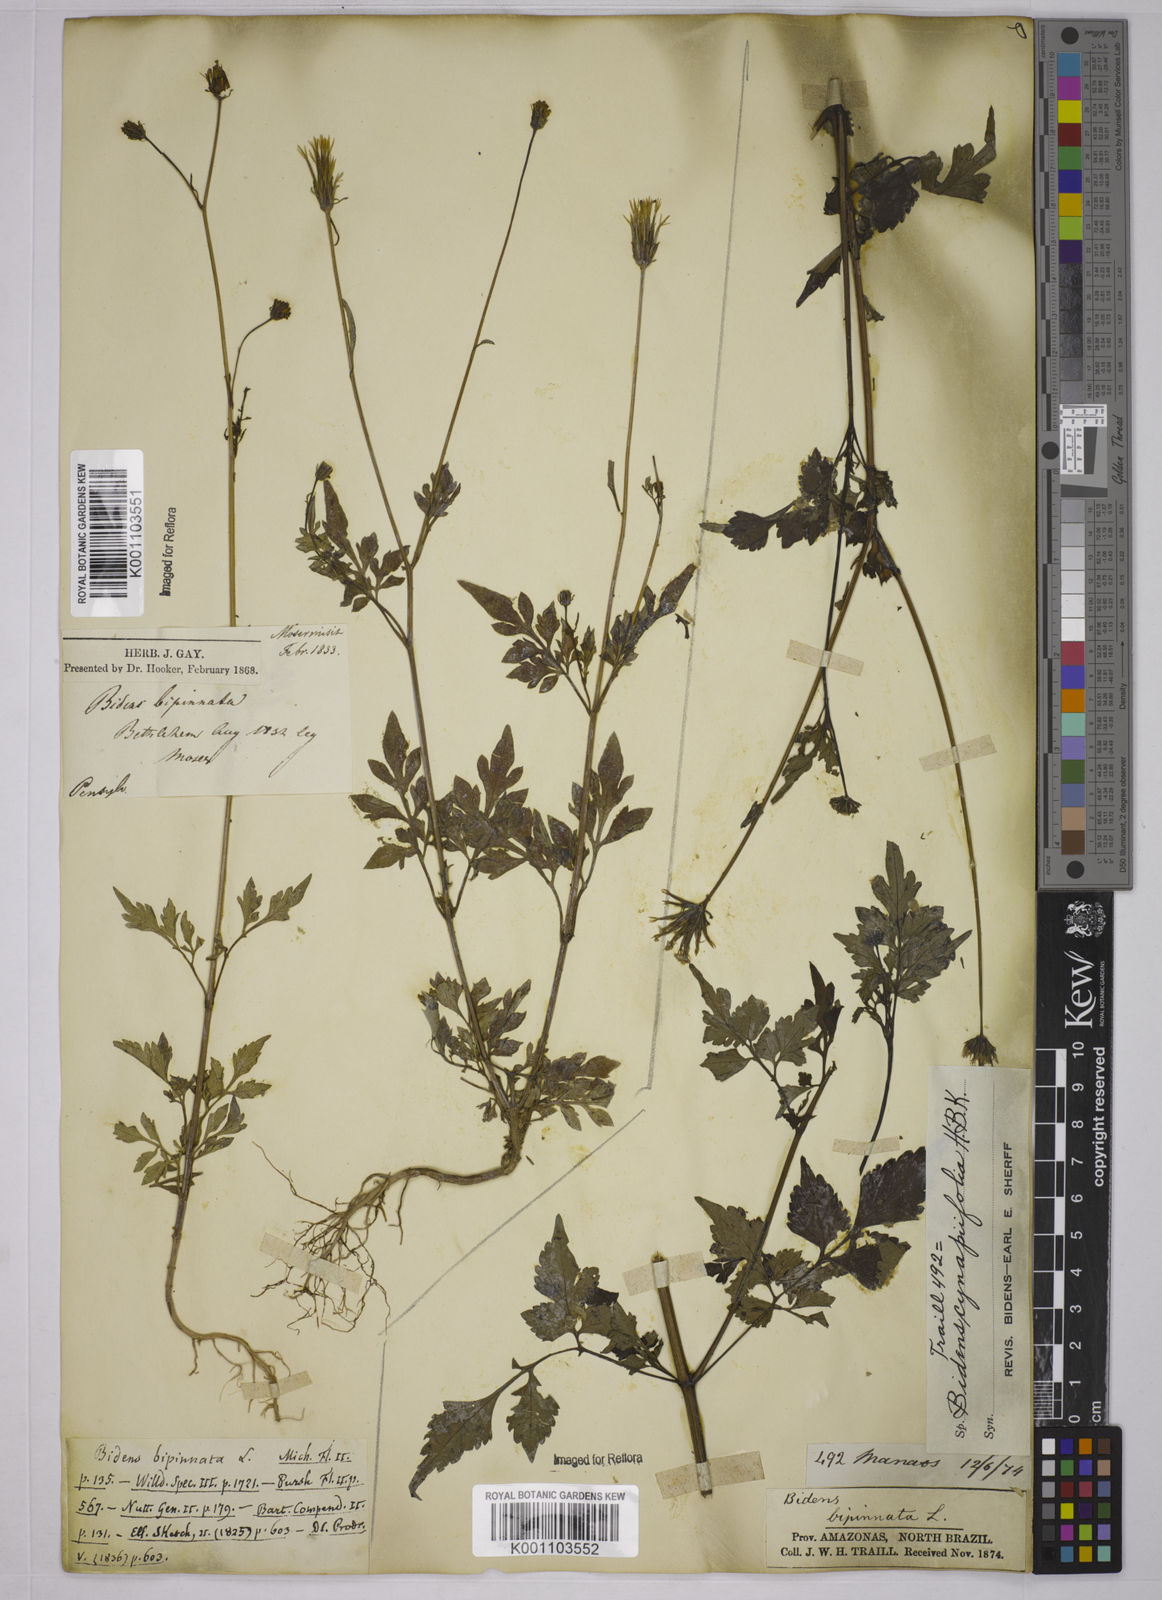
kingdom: Plantae
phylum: Tracheophyta
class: Magnoliopsida
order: Asterales
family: Asteraceae
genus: Bidens
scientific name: Bidens cynapiifolia
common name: Beggar's tick
